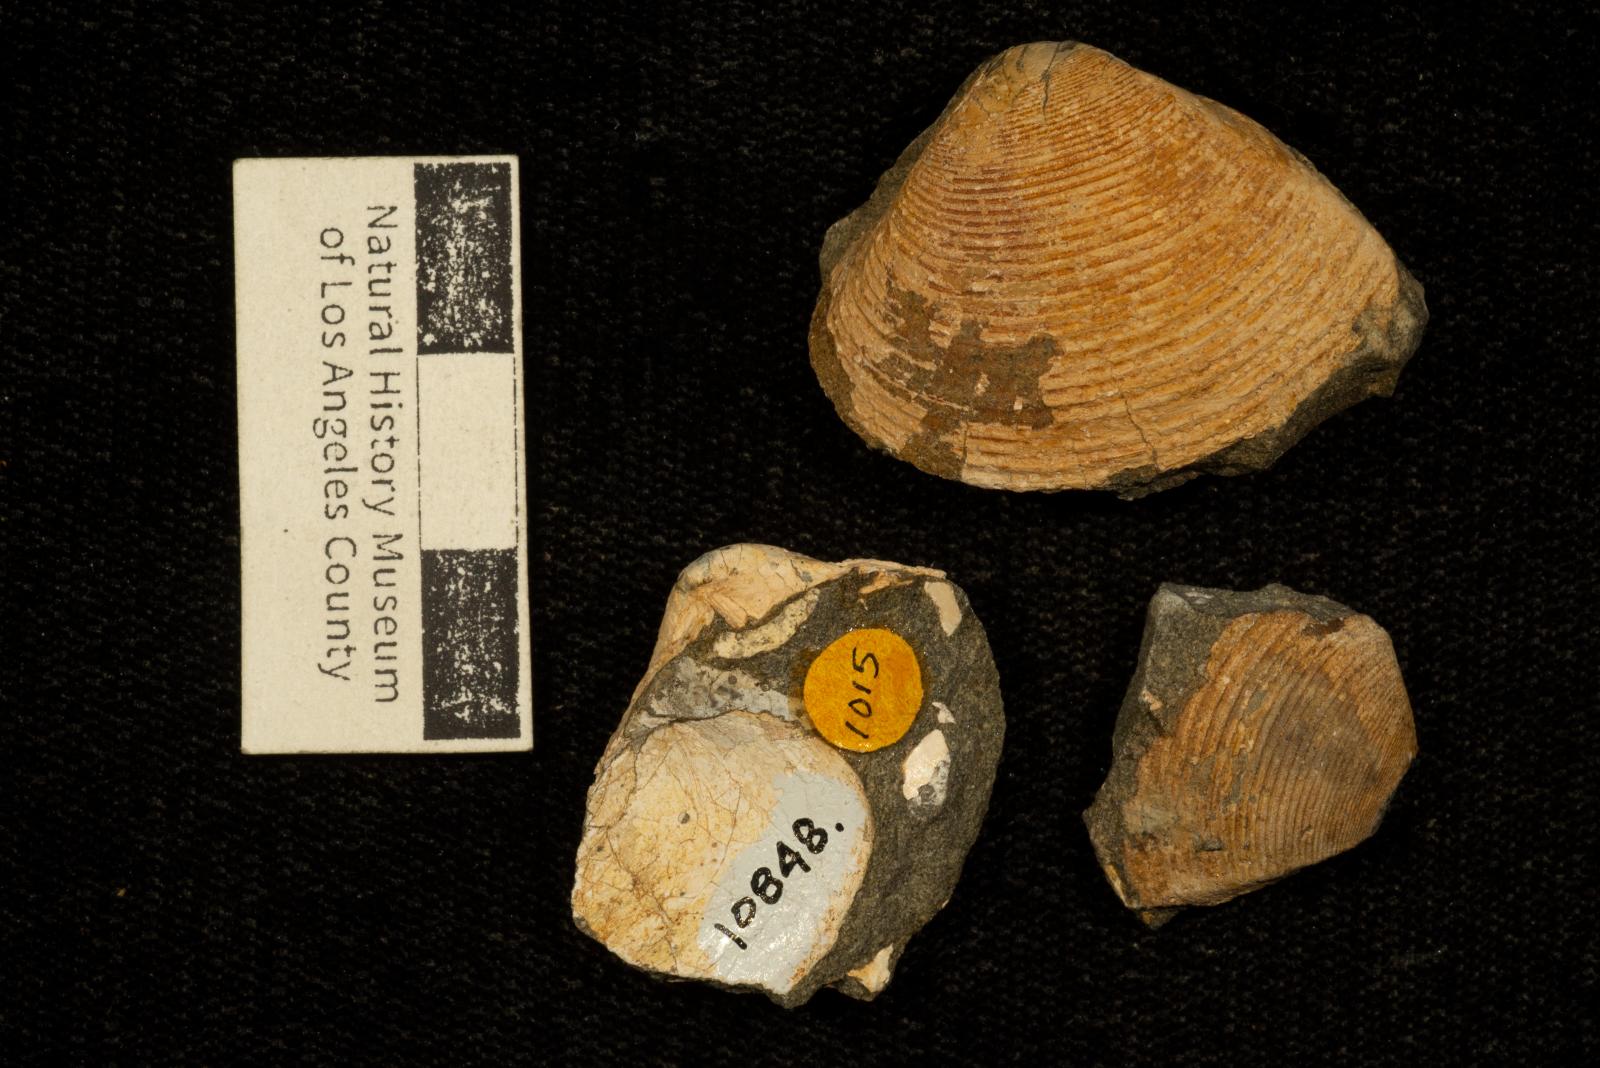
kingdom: Animalia
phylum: Mollusca
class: Bivalvia
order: Venerida
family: Mactridae
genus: Cymbophora
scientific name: Cymbophora bella
